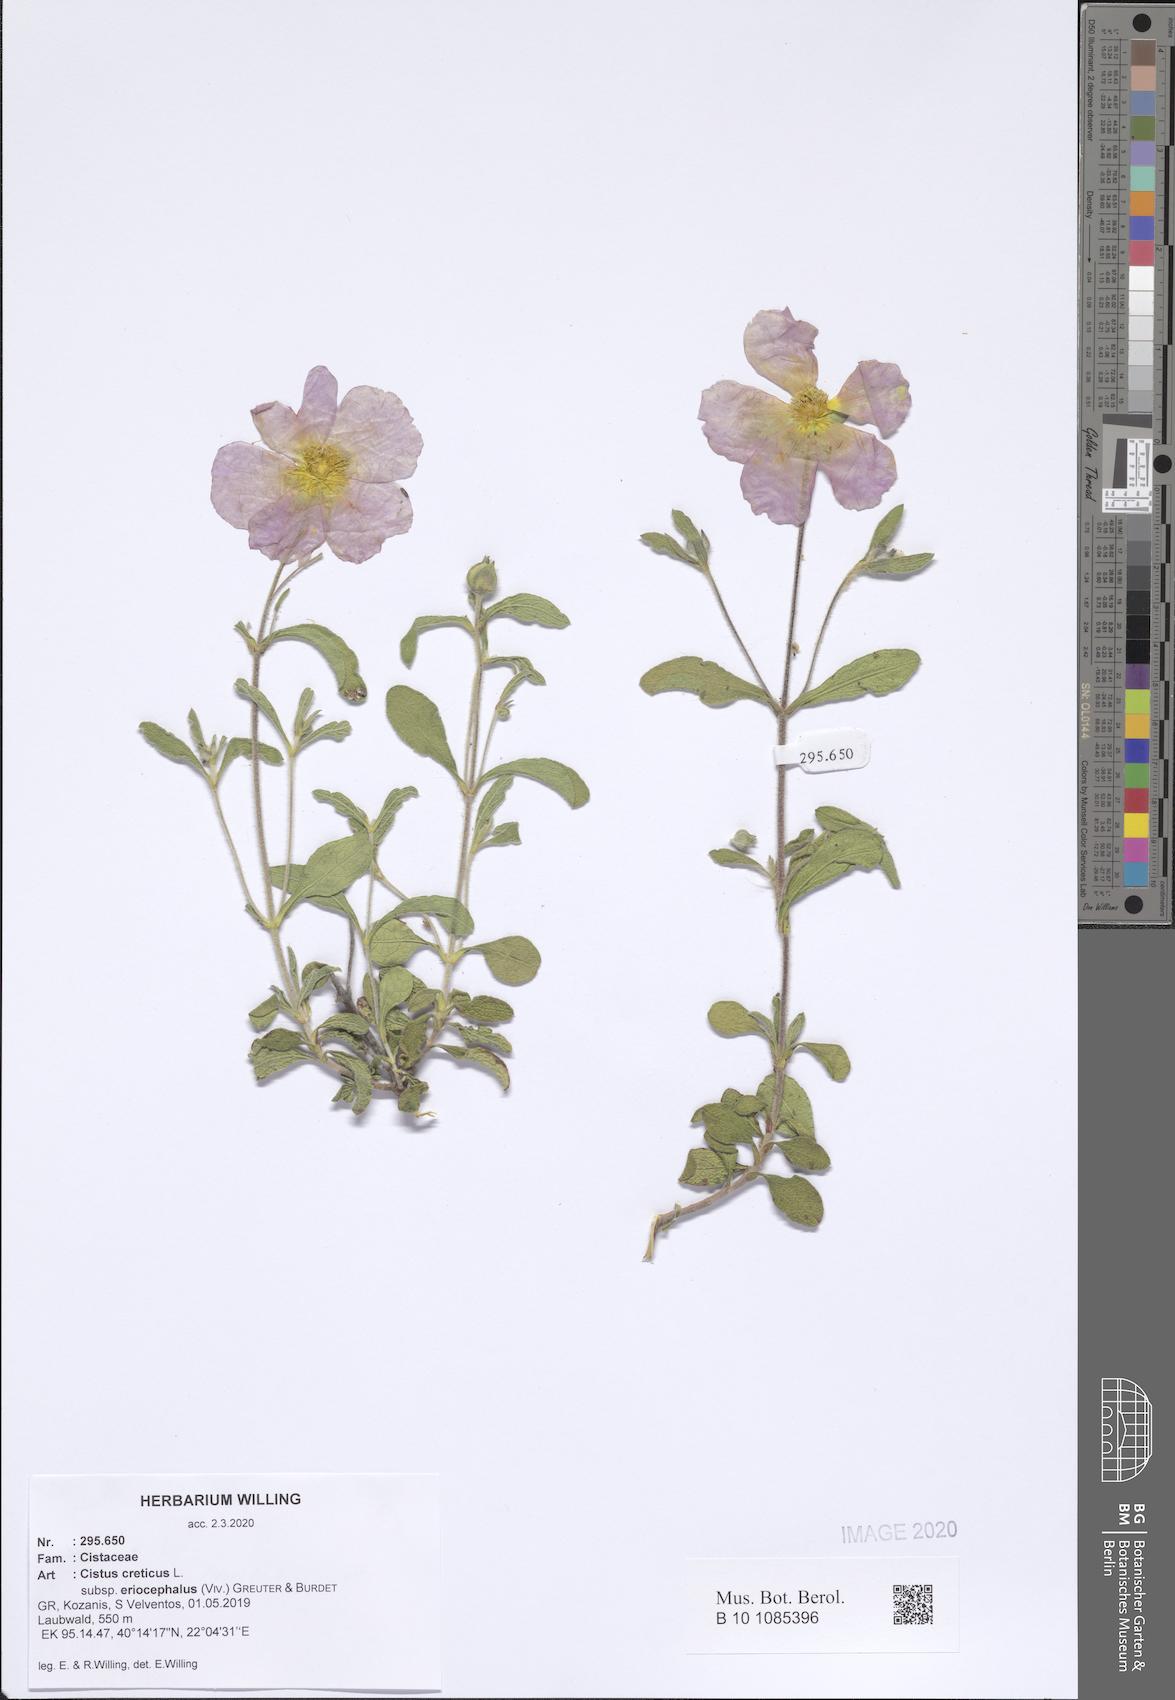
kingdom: Plantae
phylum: Tracheophyta
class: Magnoliopsida
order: Malvales
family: Cistaceae
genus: Cistus
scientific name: Cistus tauricus
